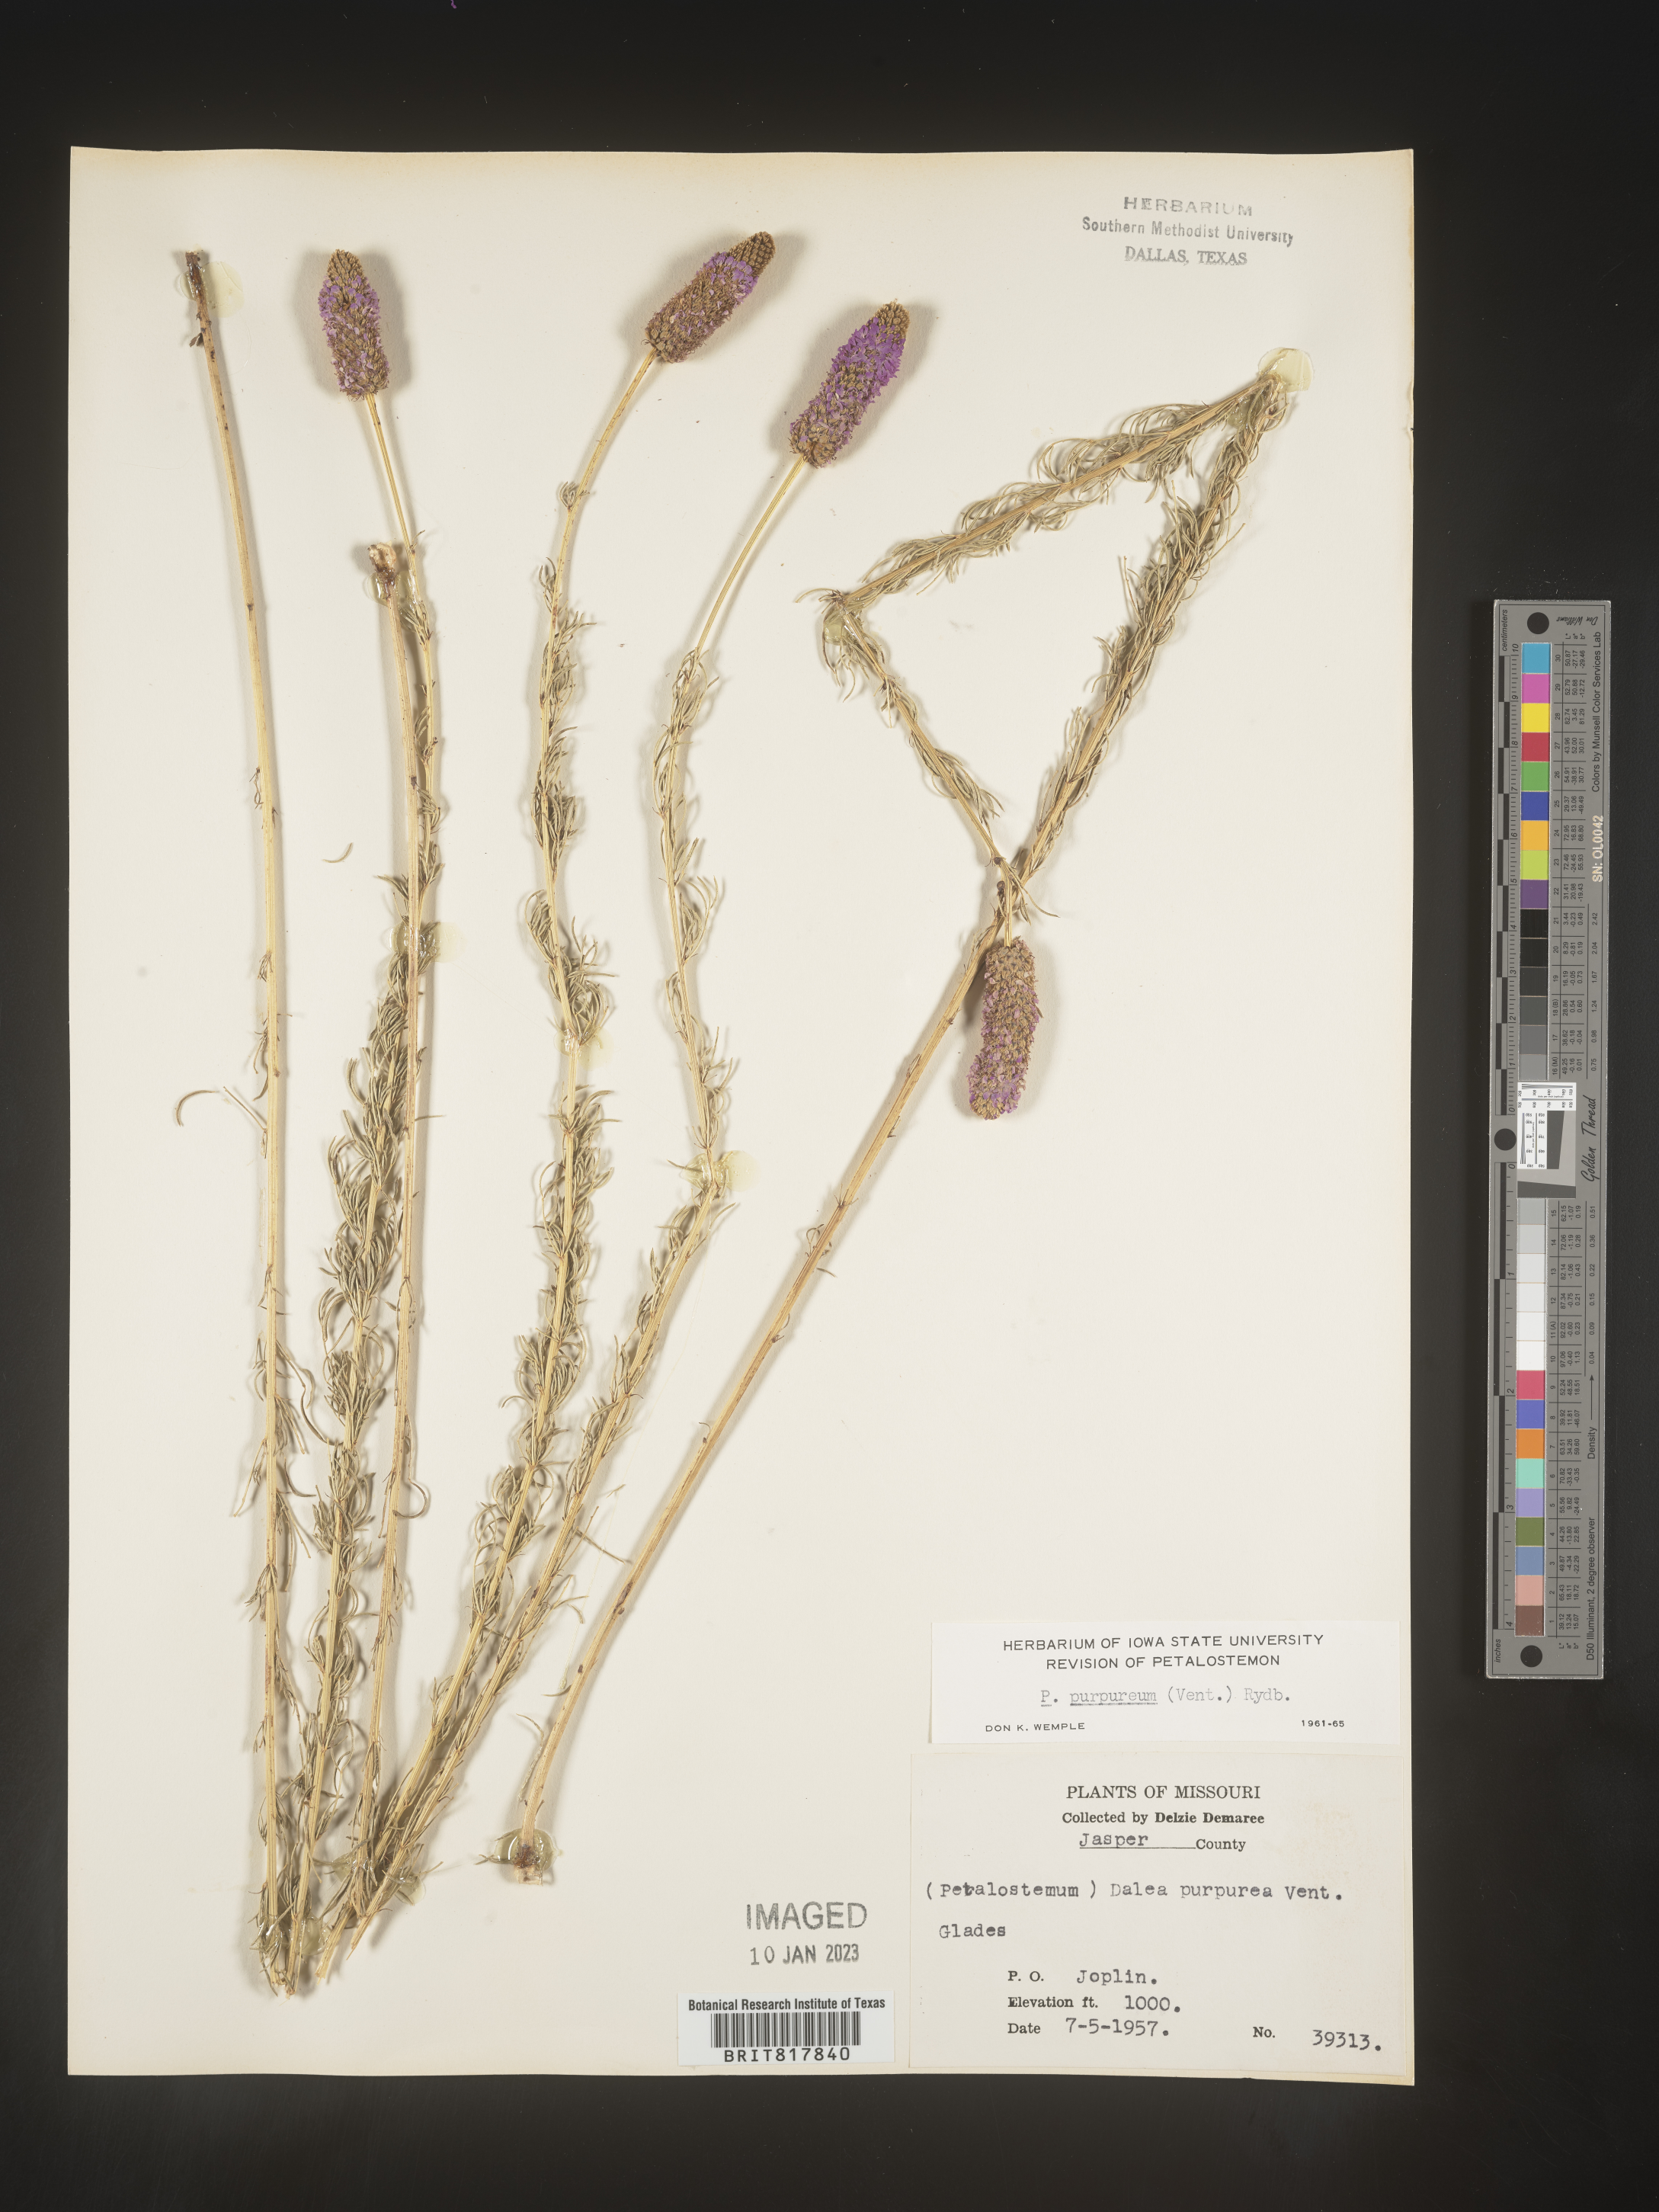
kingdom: Plantae
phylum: Tracheophyta
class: Magnoliopsida
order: Fabales
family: Fabaceae
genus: Dalea
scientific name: Dalea purpurea
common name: Purple prairie-clover
